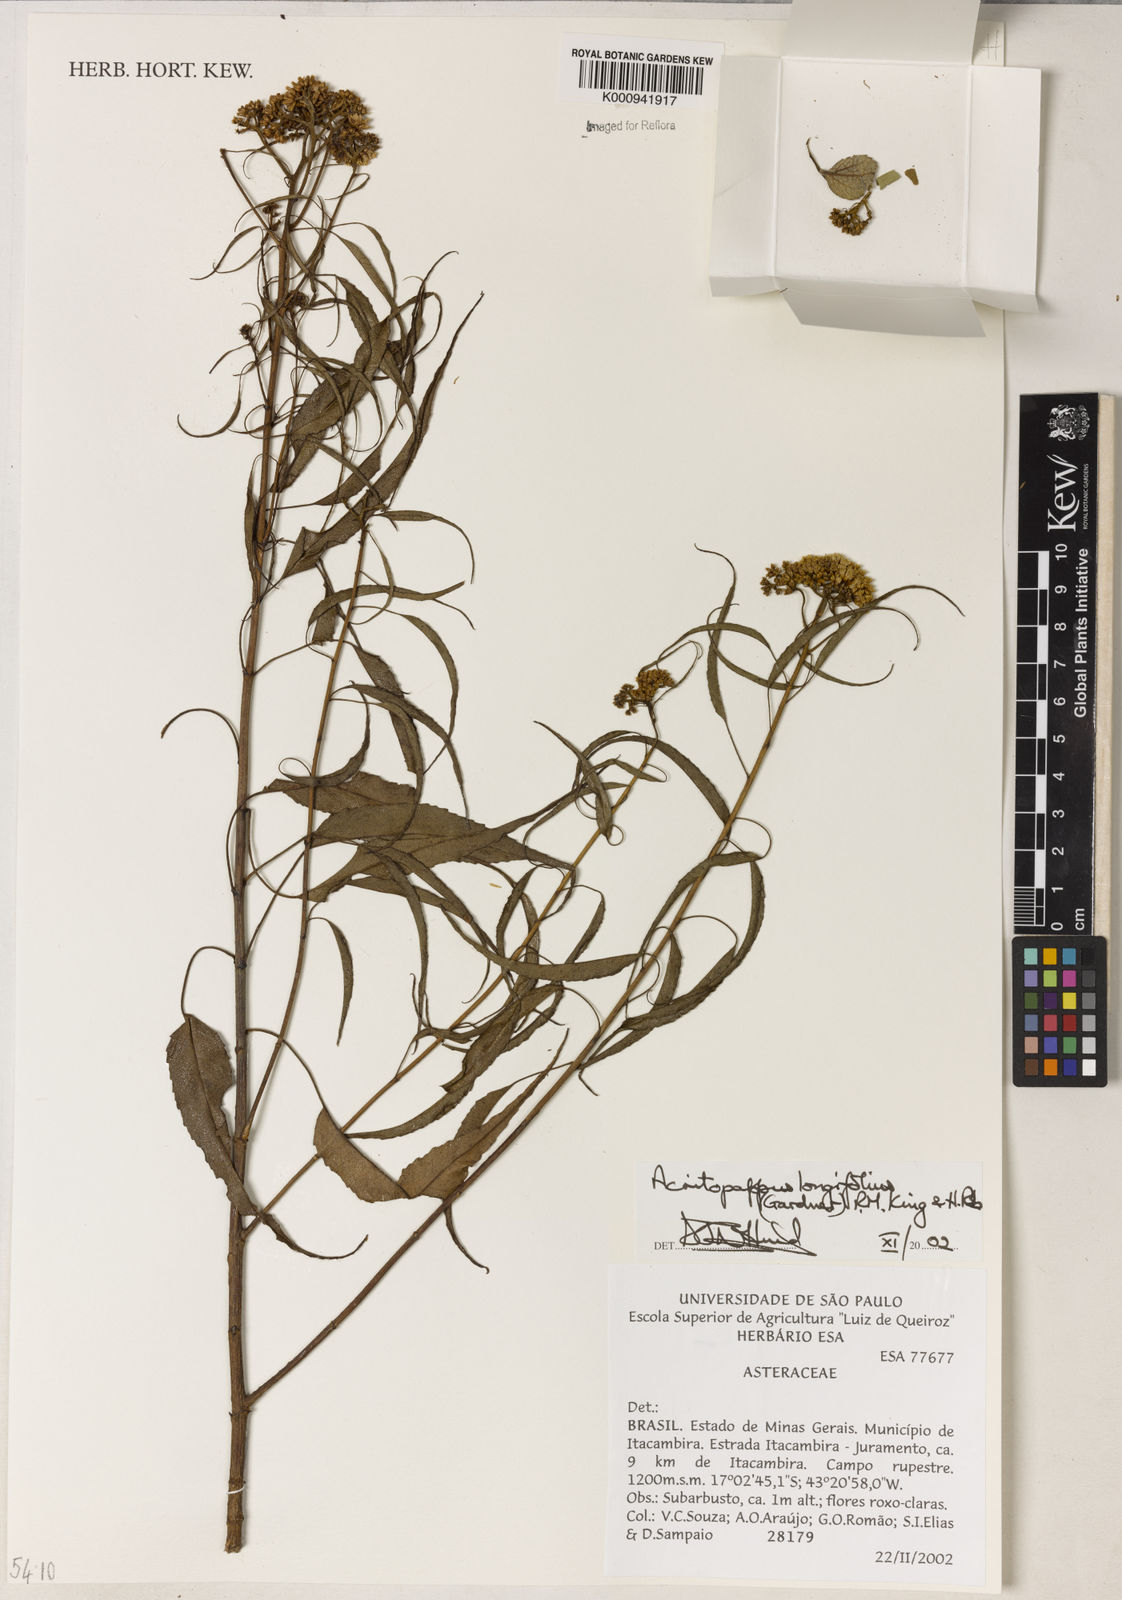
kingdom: Plantae
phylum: Tracheophyta
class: Magnoliopsida
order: Asterales
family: Asteraceae
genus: Acritopappus
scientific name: Acritopappus longifolius
